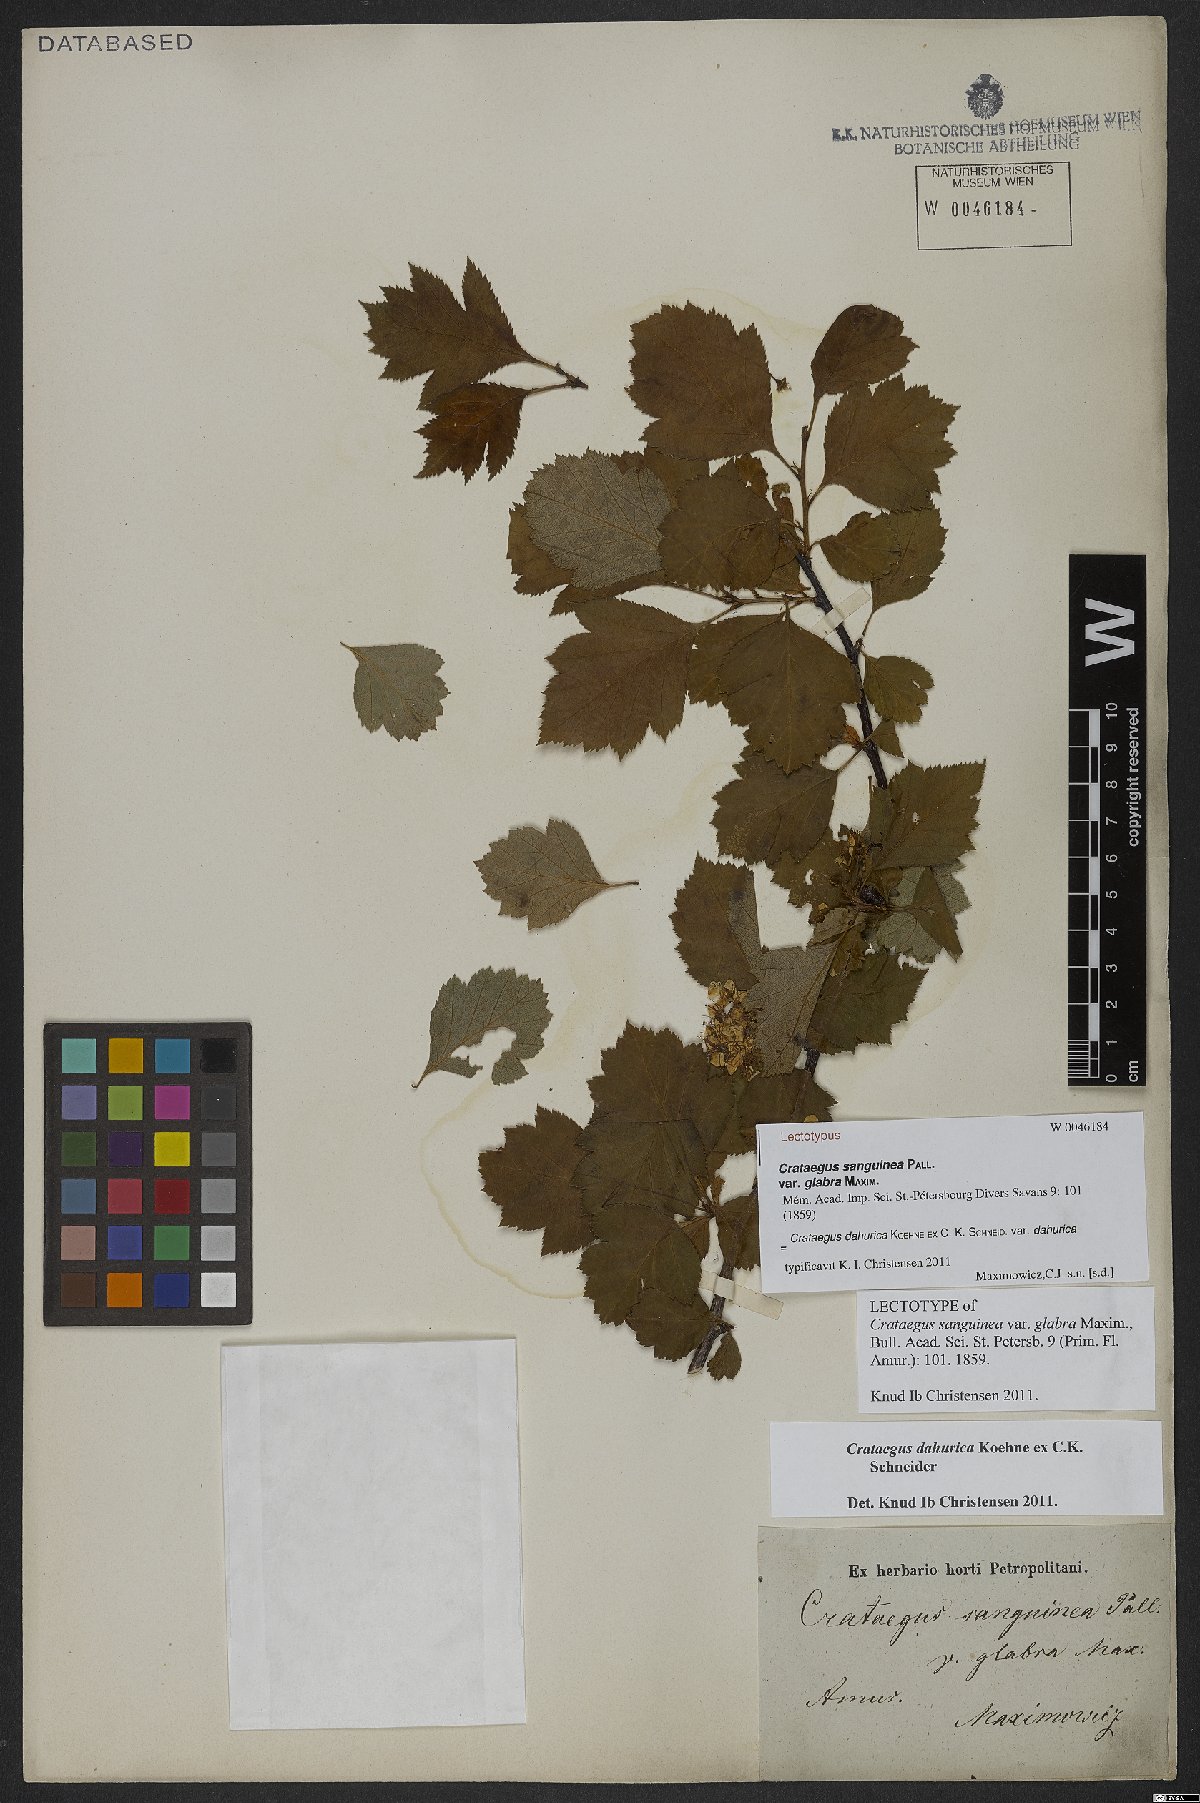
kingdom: Plantae
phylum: Tracheophyta
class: Magnoliopsida
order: Rosales
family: Rosaceae
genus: Crataegus
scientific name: Crataegus dahurica
